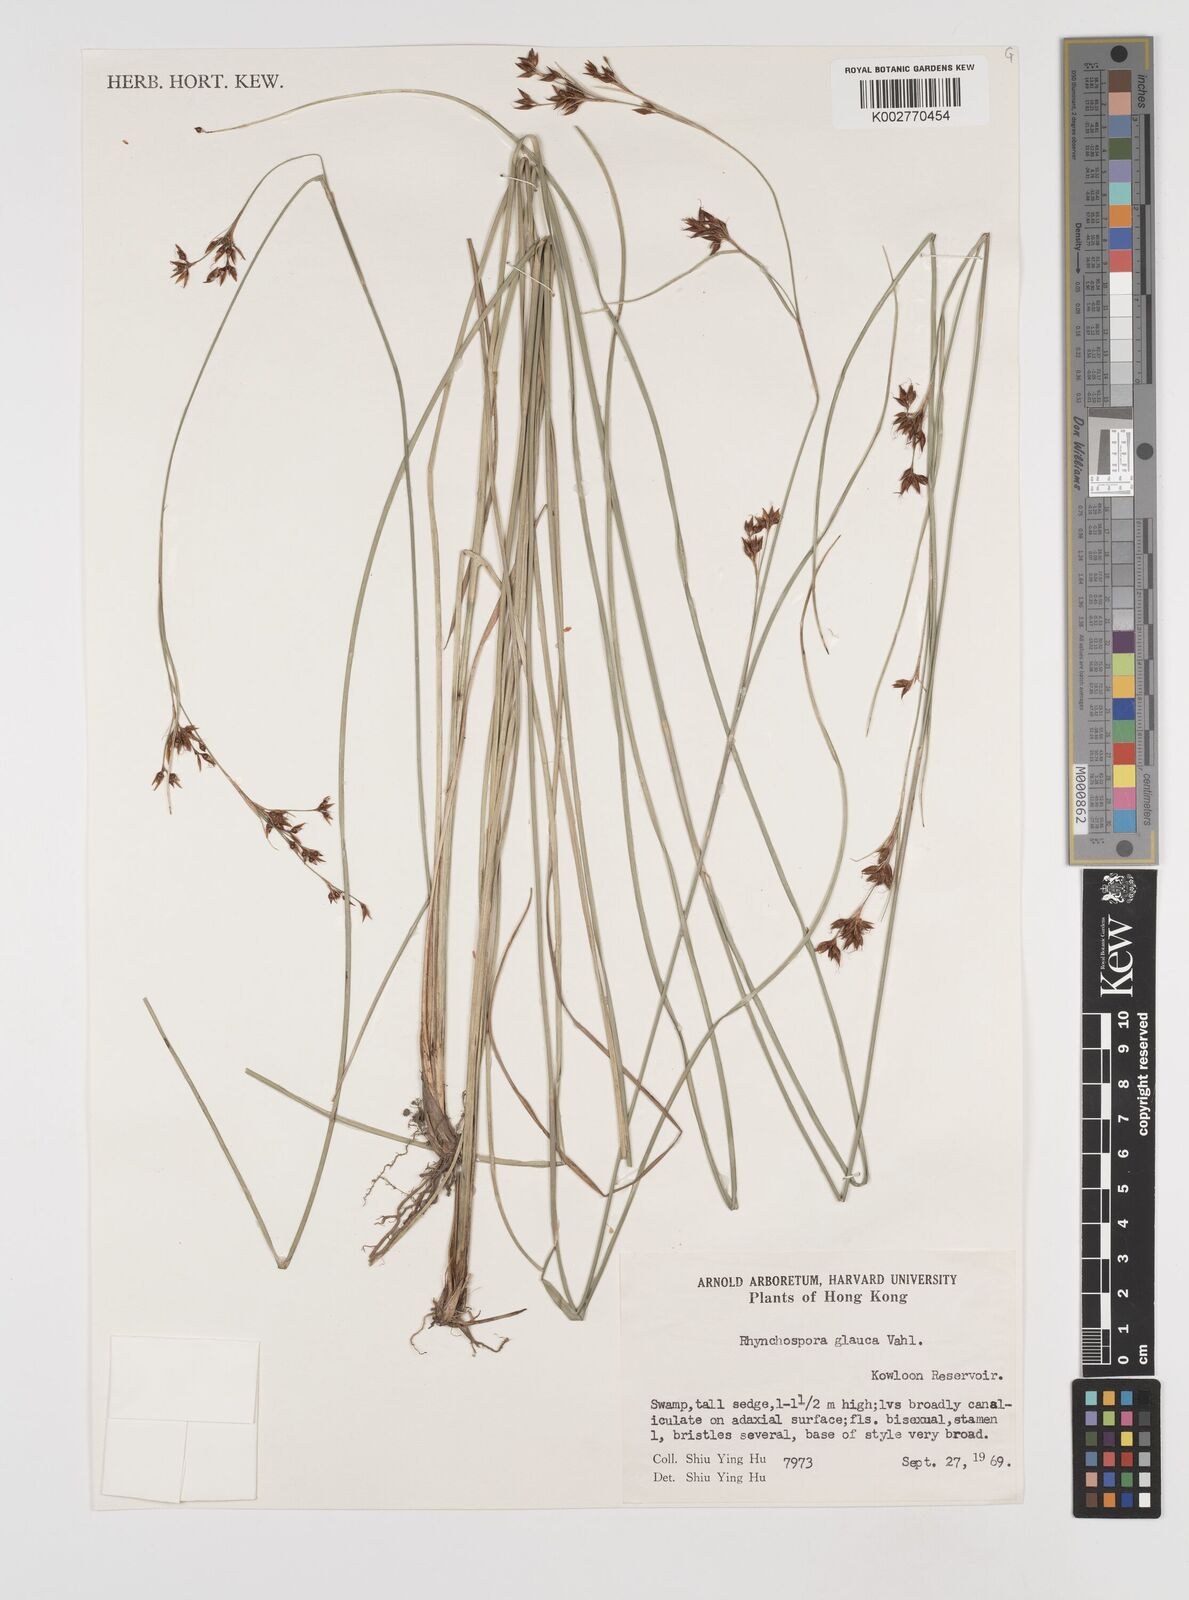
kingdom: Plantae
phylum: Tracheophyta
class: Liliopsida
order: Poales
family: Cyperaceae
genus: Rhynchospora
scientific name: Rhynchospora
